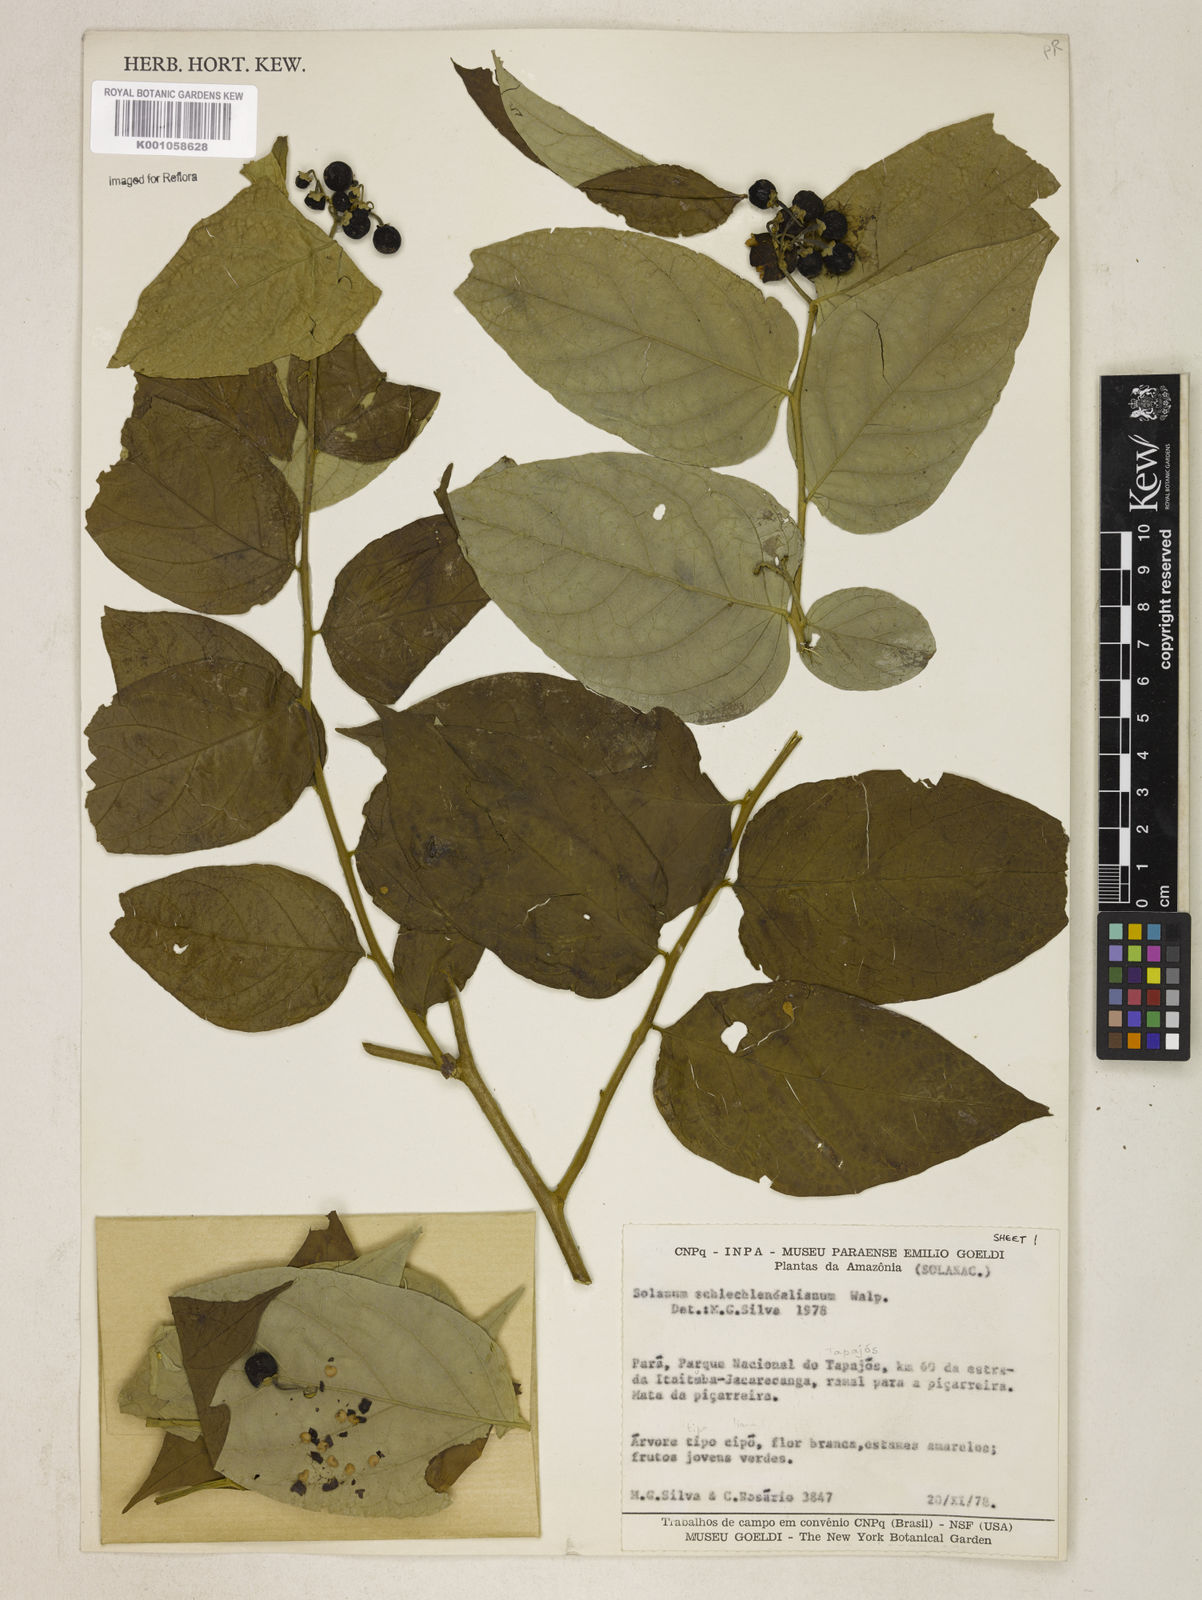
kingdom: Plantae
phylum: Tracheophyta
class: Magnoliopsida
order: Solanales
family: Solanaceae
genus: Solanum
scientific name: Solanum schlechtendalianum
